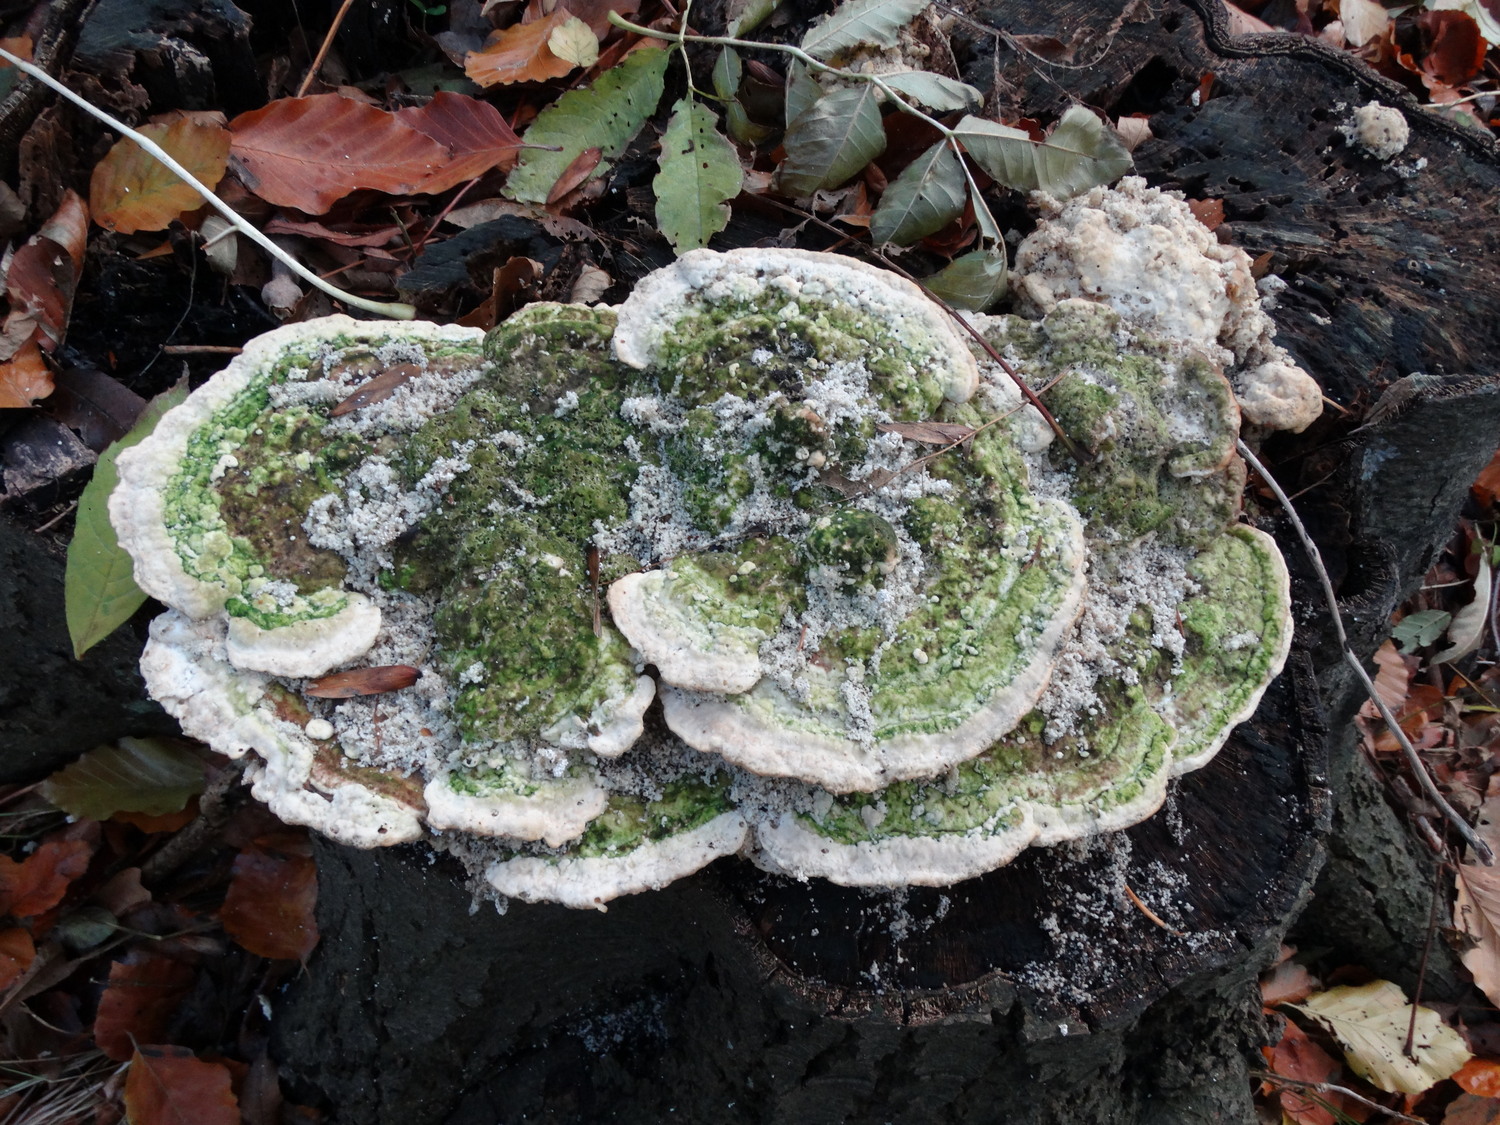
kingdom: Fungi
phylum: Basidiomycota
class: Agaricomycetes
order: Polyporales
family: Polyporaceae
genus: Trametes
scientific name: Trametes gibbosa
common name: puklet læderporesvamp
